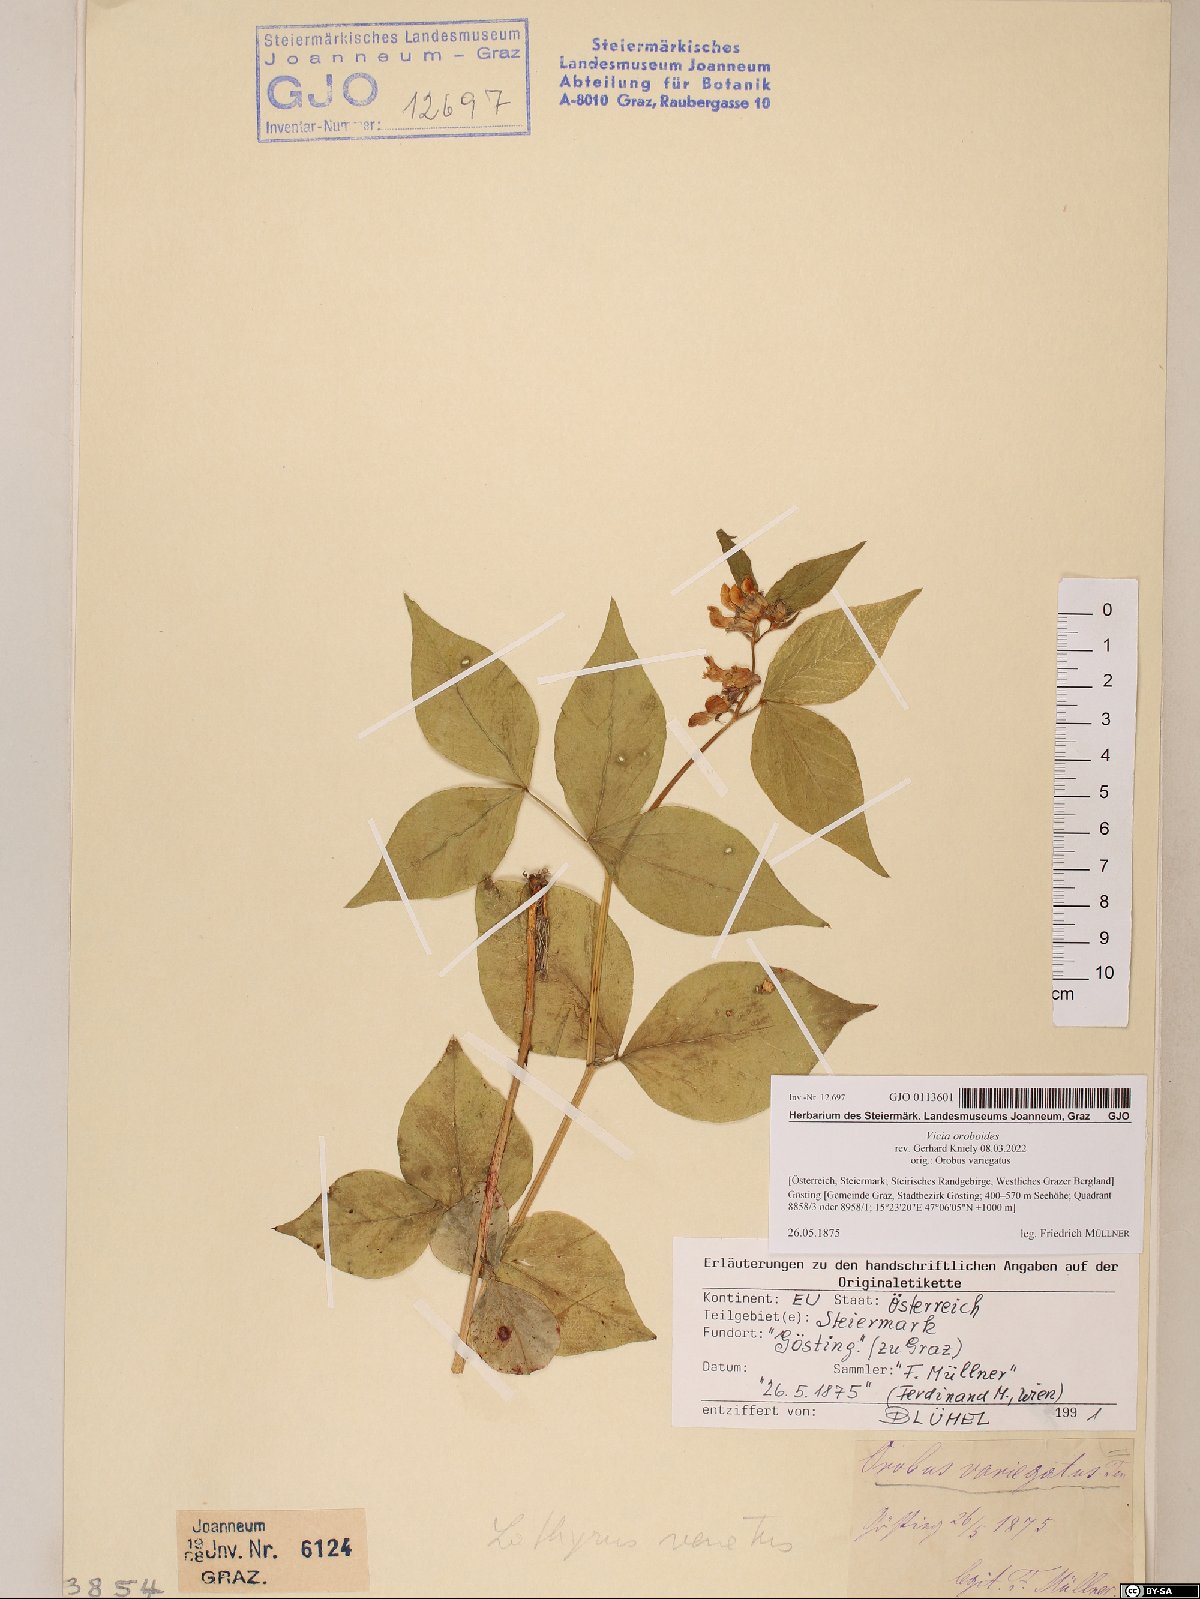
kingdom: Plantae
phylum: Tracheophyta
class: Magnoliopsida
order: Fabales
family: Fabaceae
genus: Vicia
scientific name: Vicia oroboides
